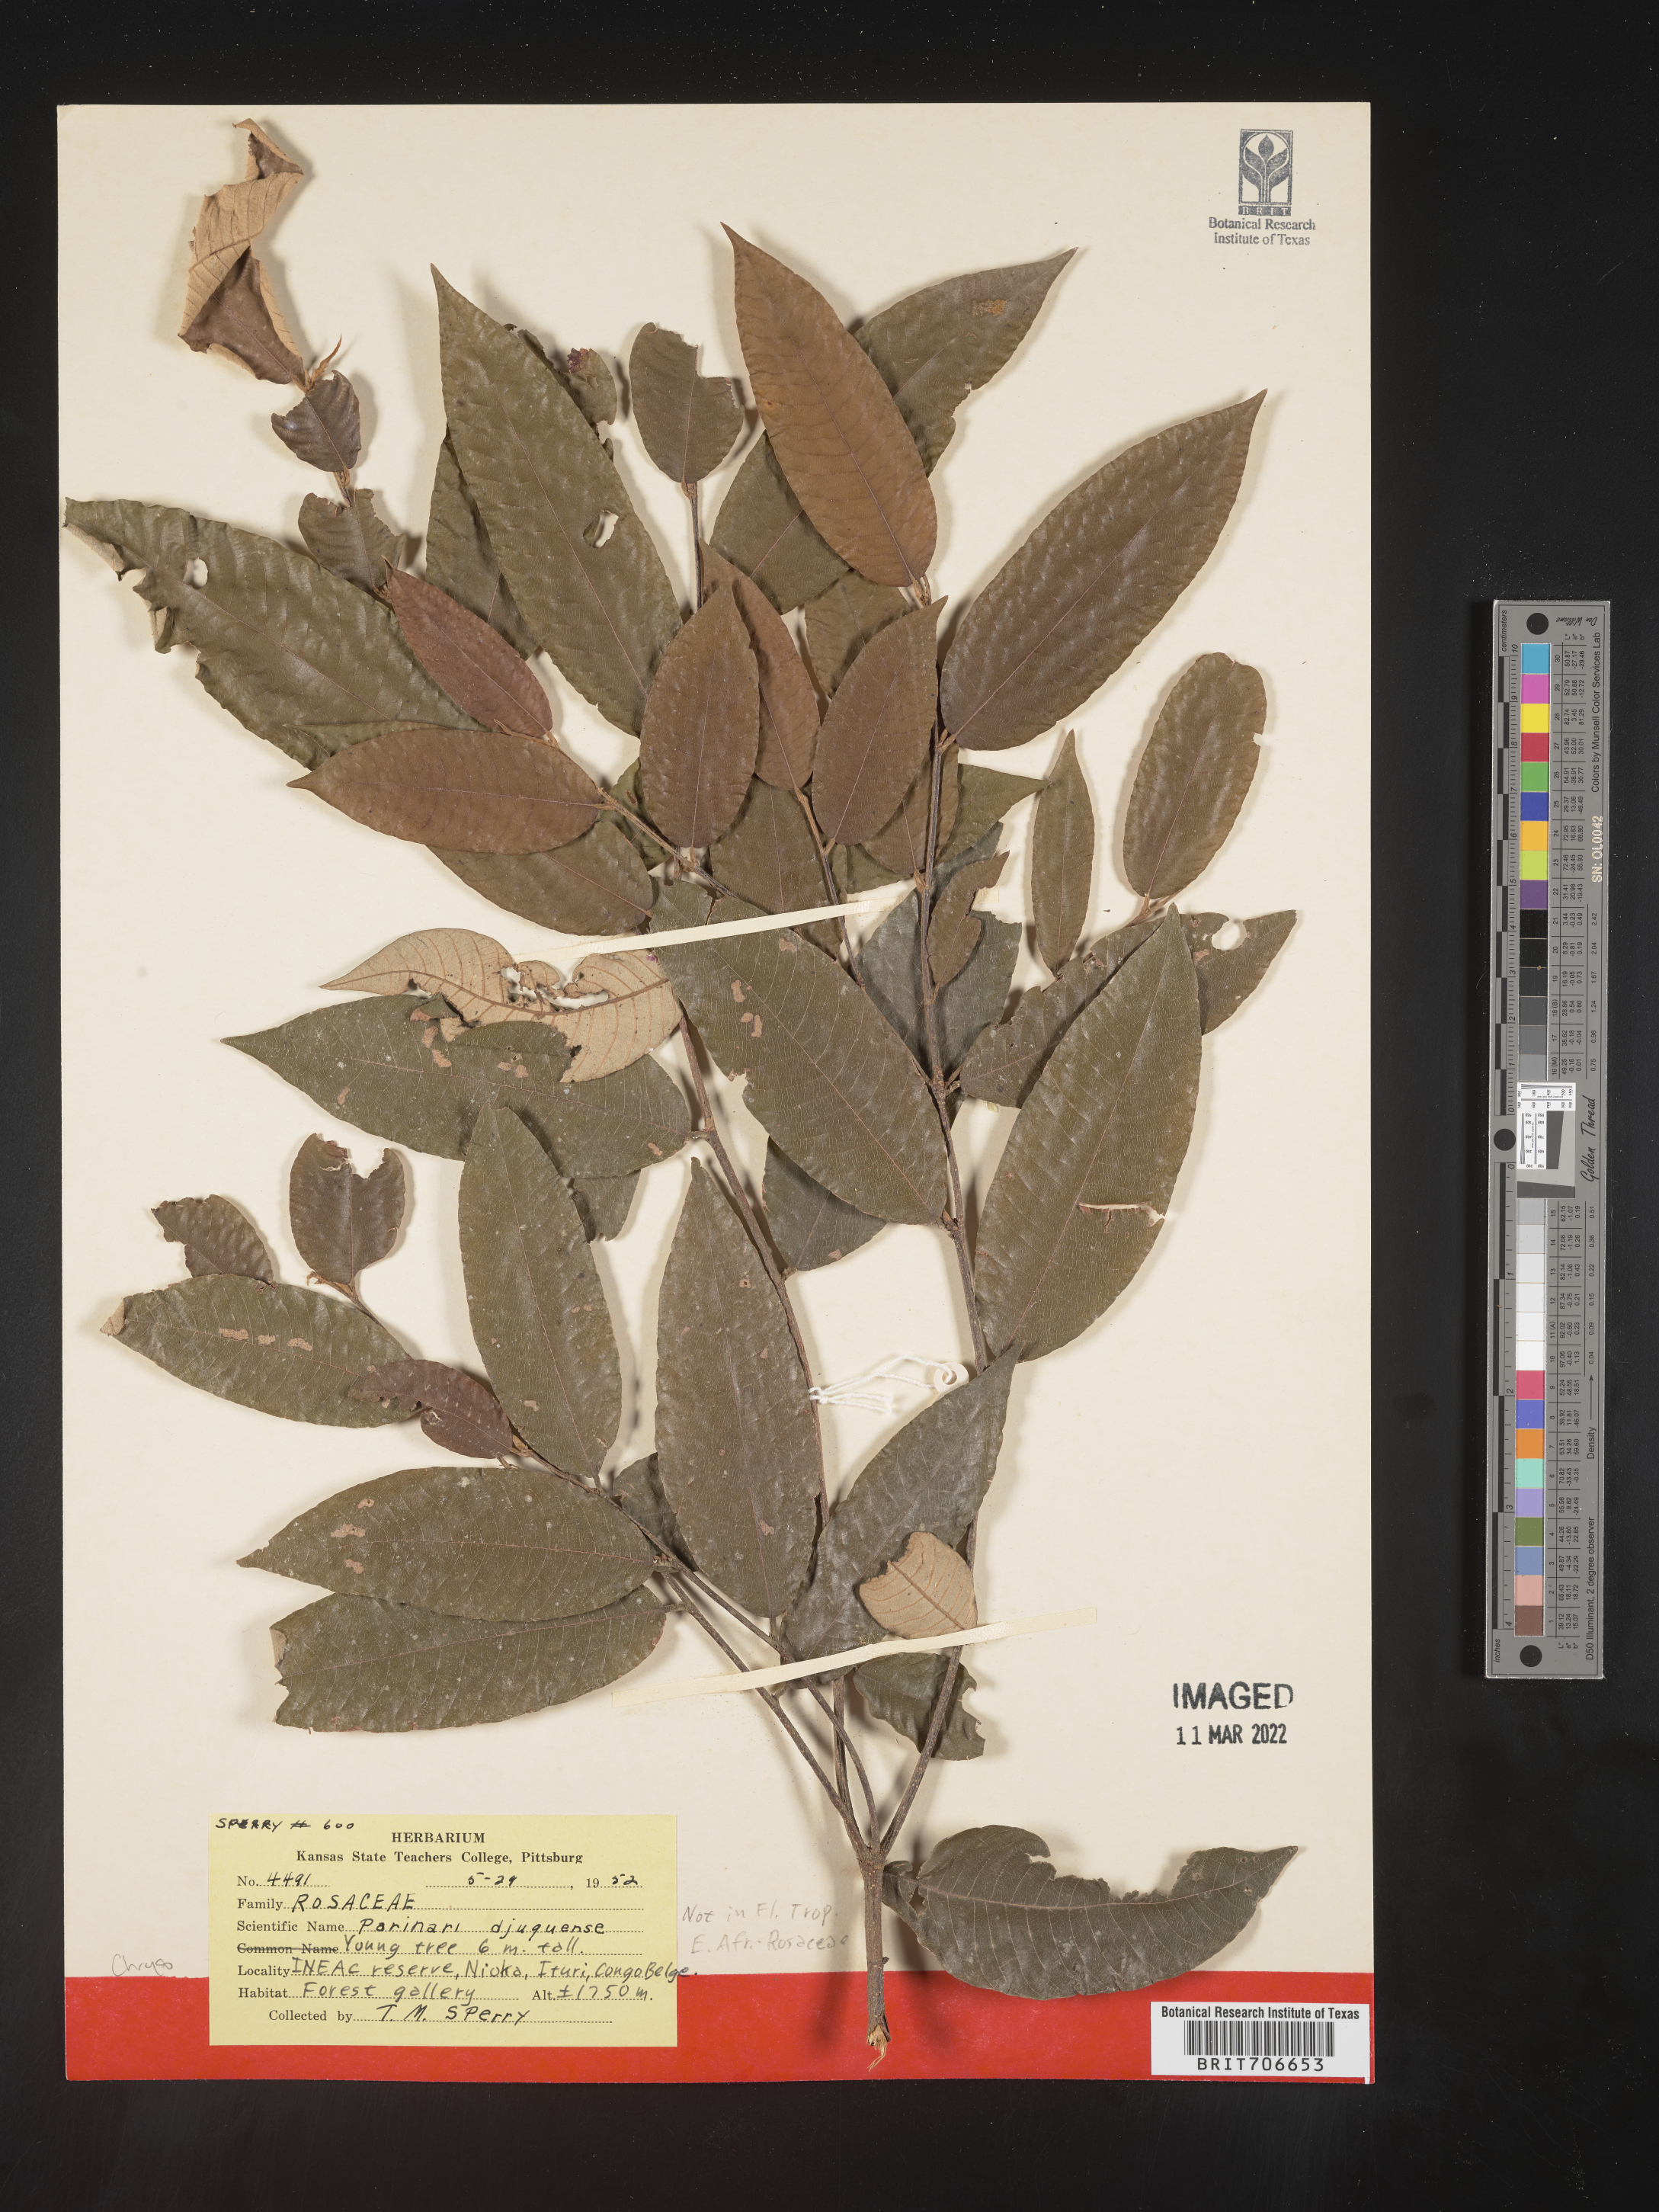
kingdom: Plantae
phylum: Tracheophyta
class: Magnoliopsida
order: Malpighiales
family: Chrysobalanaceae
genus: Parinari
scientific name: Parinari
